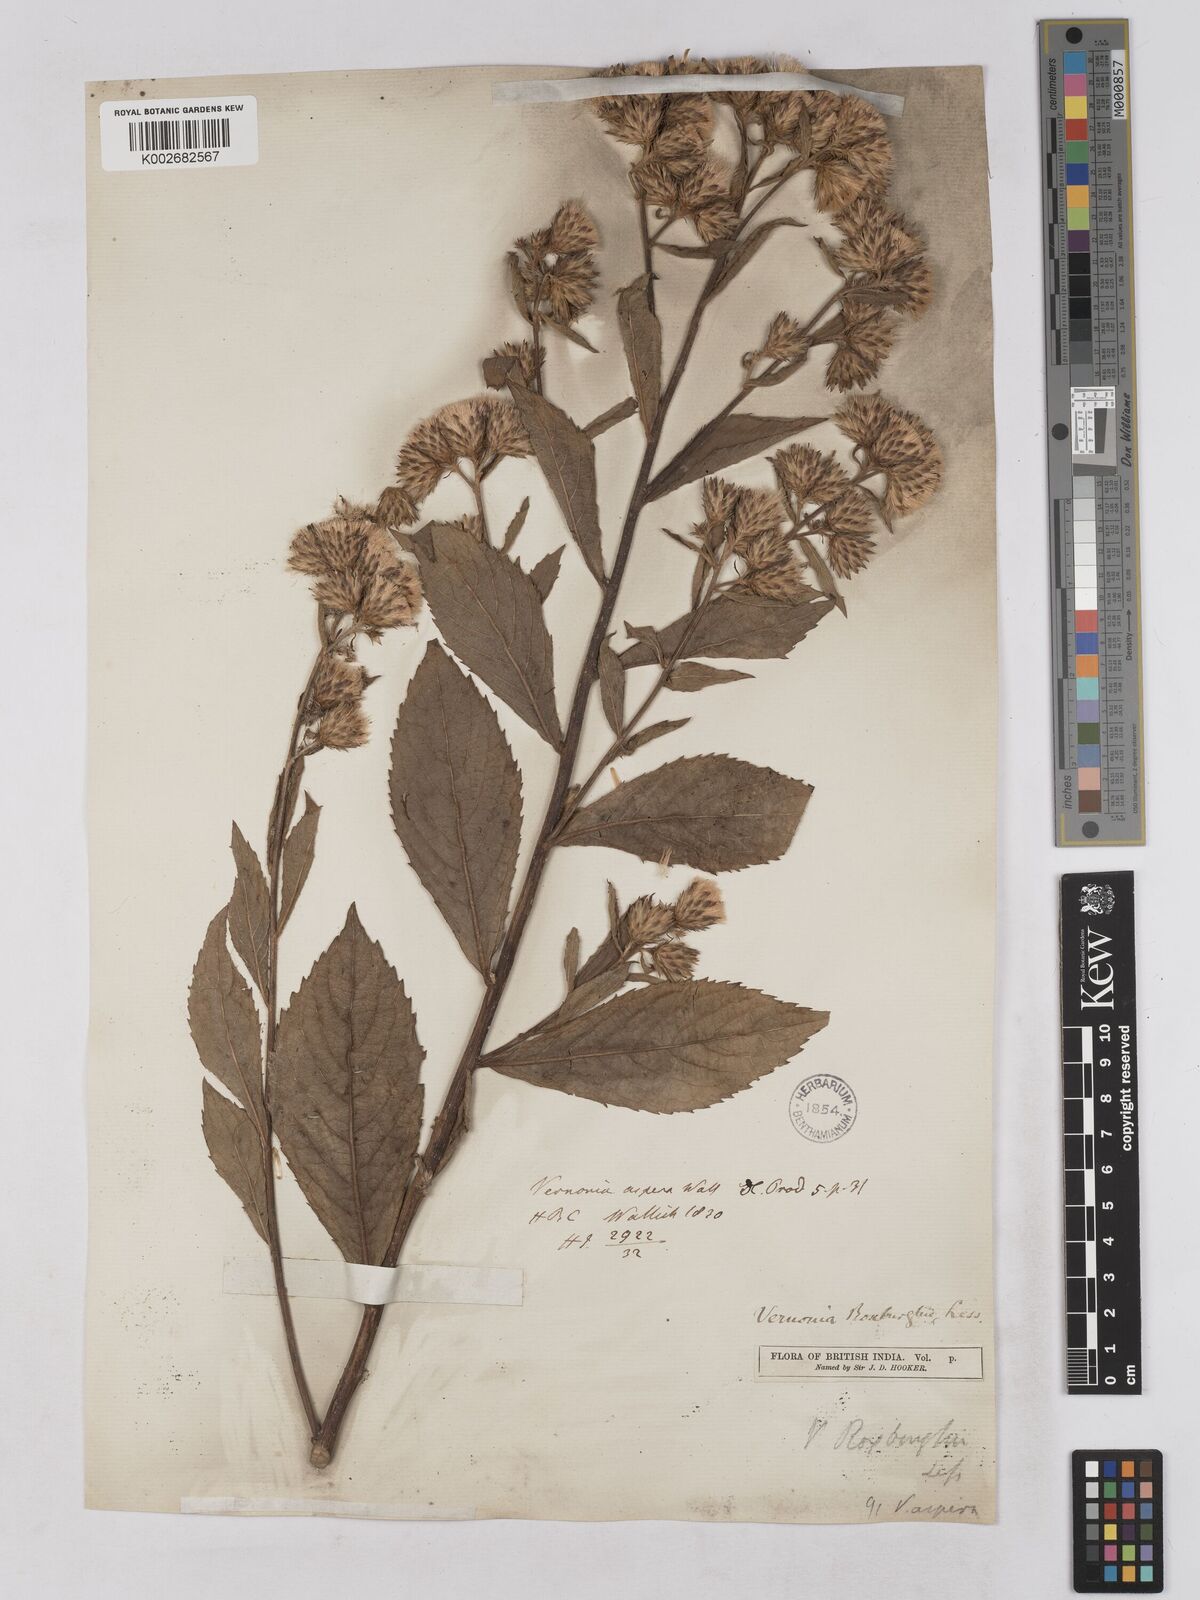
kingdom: Plantae
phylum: Tracheophyta
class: Magnoliopsida
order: Asterales
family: Asteraceae
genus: Acilepis
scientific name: Acilepis aspera
